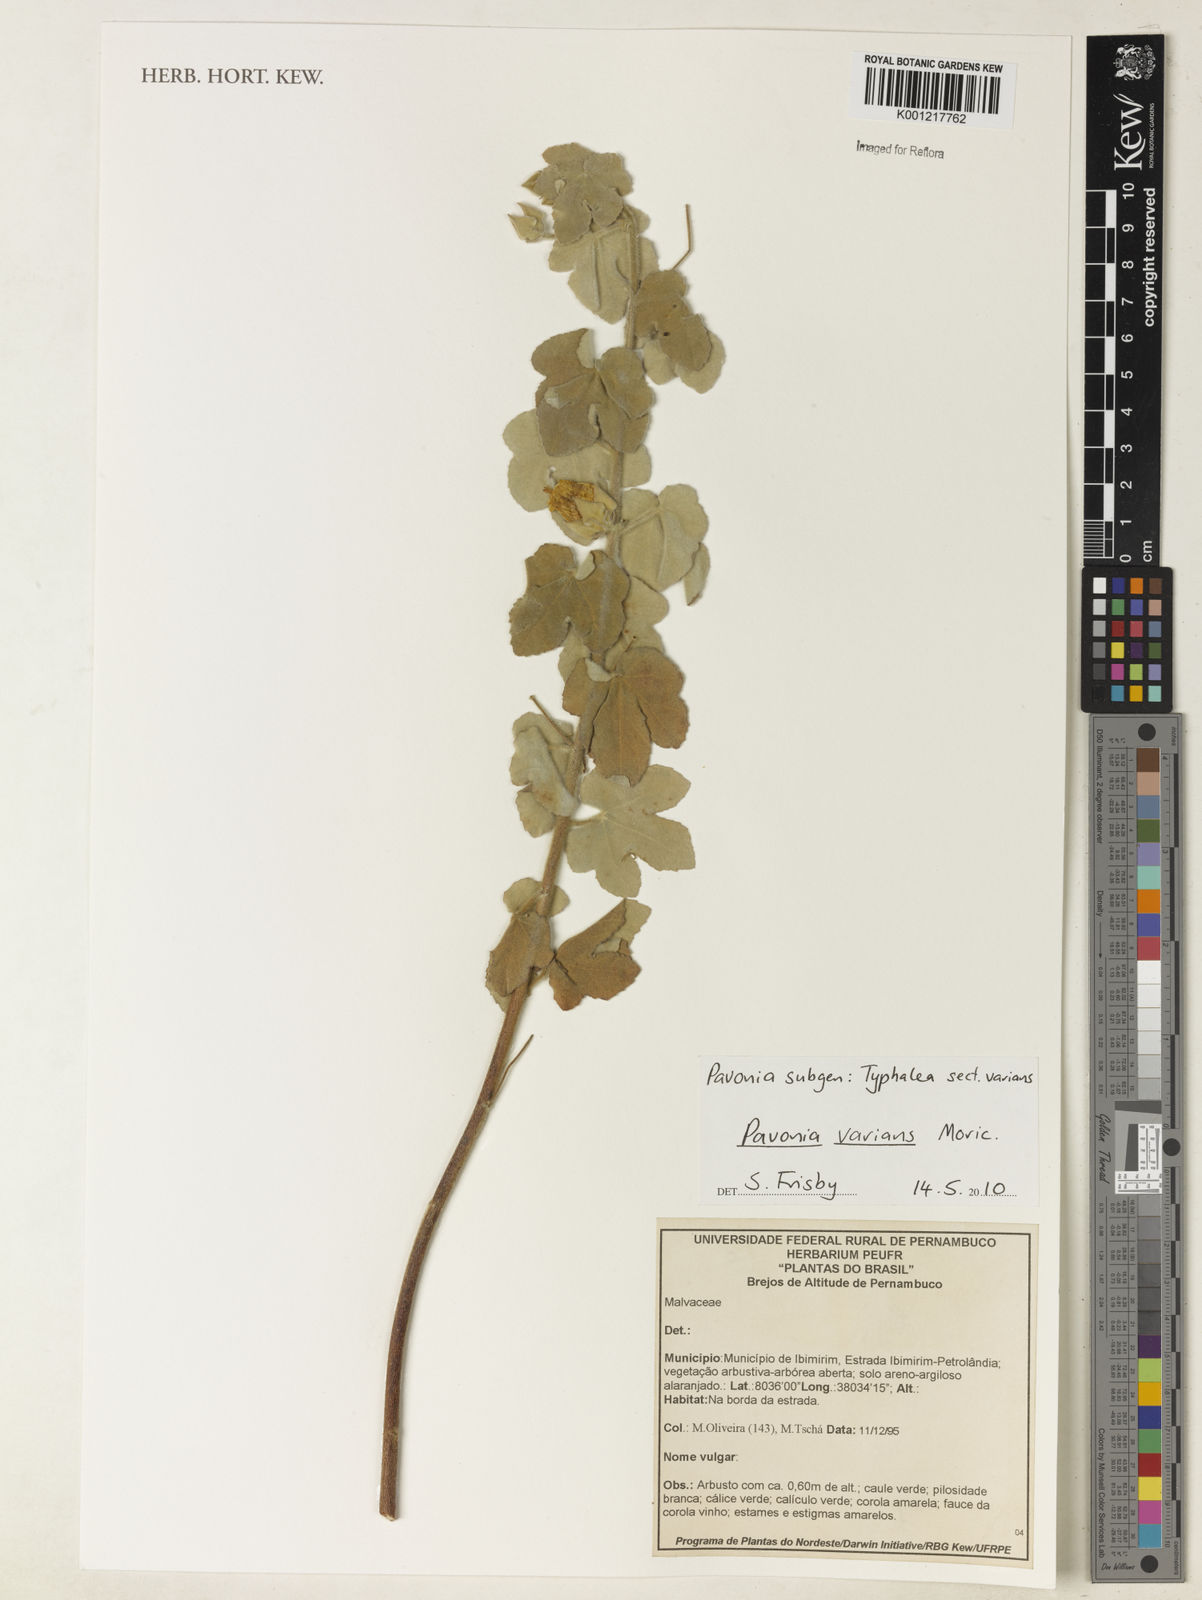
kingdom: Plantae
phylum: Tracheophyta
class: Magnoliopsida
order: Malvales
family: Malvaceae
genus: Pavonia
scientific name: Pavonia varians
